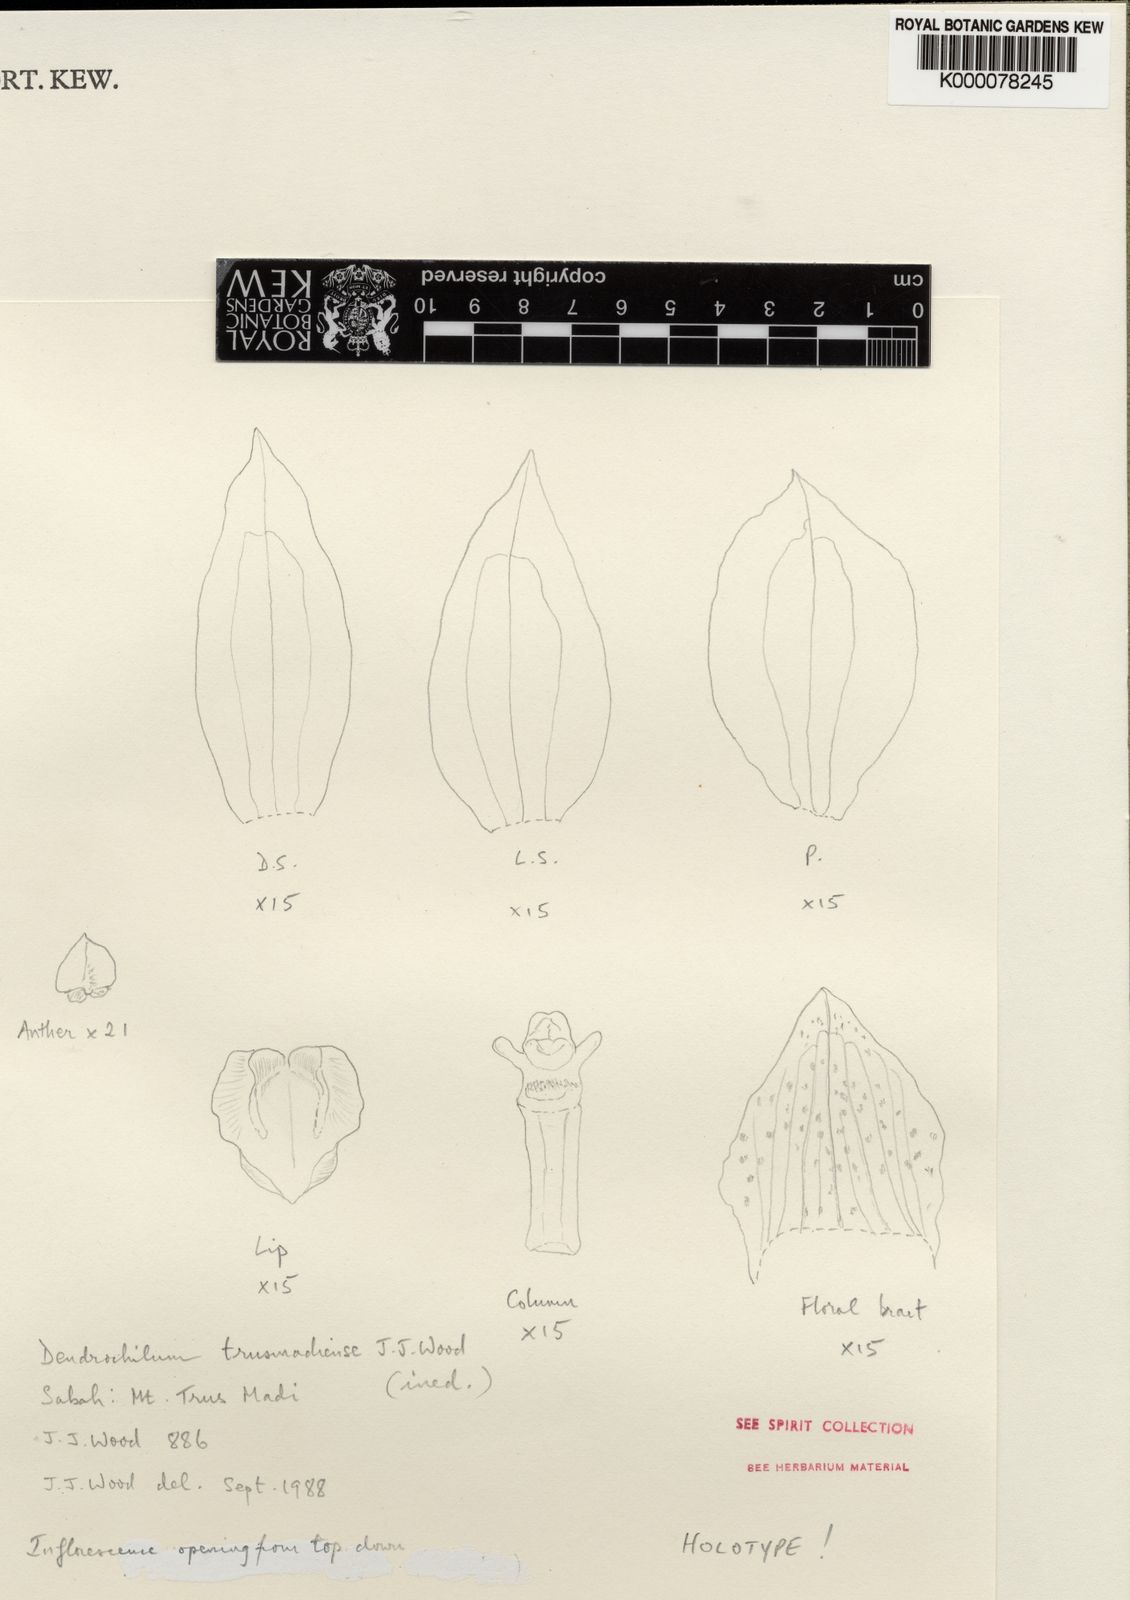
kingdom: Plantae
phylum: Tracheophyta
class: Liliopsida
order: Asparagales
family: Orchidaceae
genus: Coelogyne
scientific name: Coelogyne trusmadiensis
